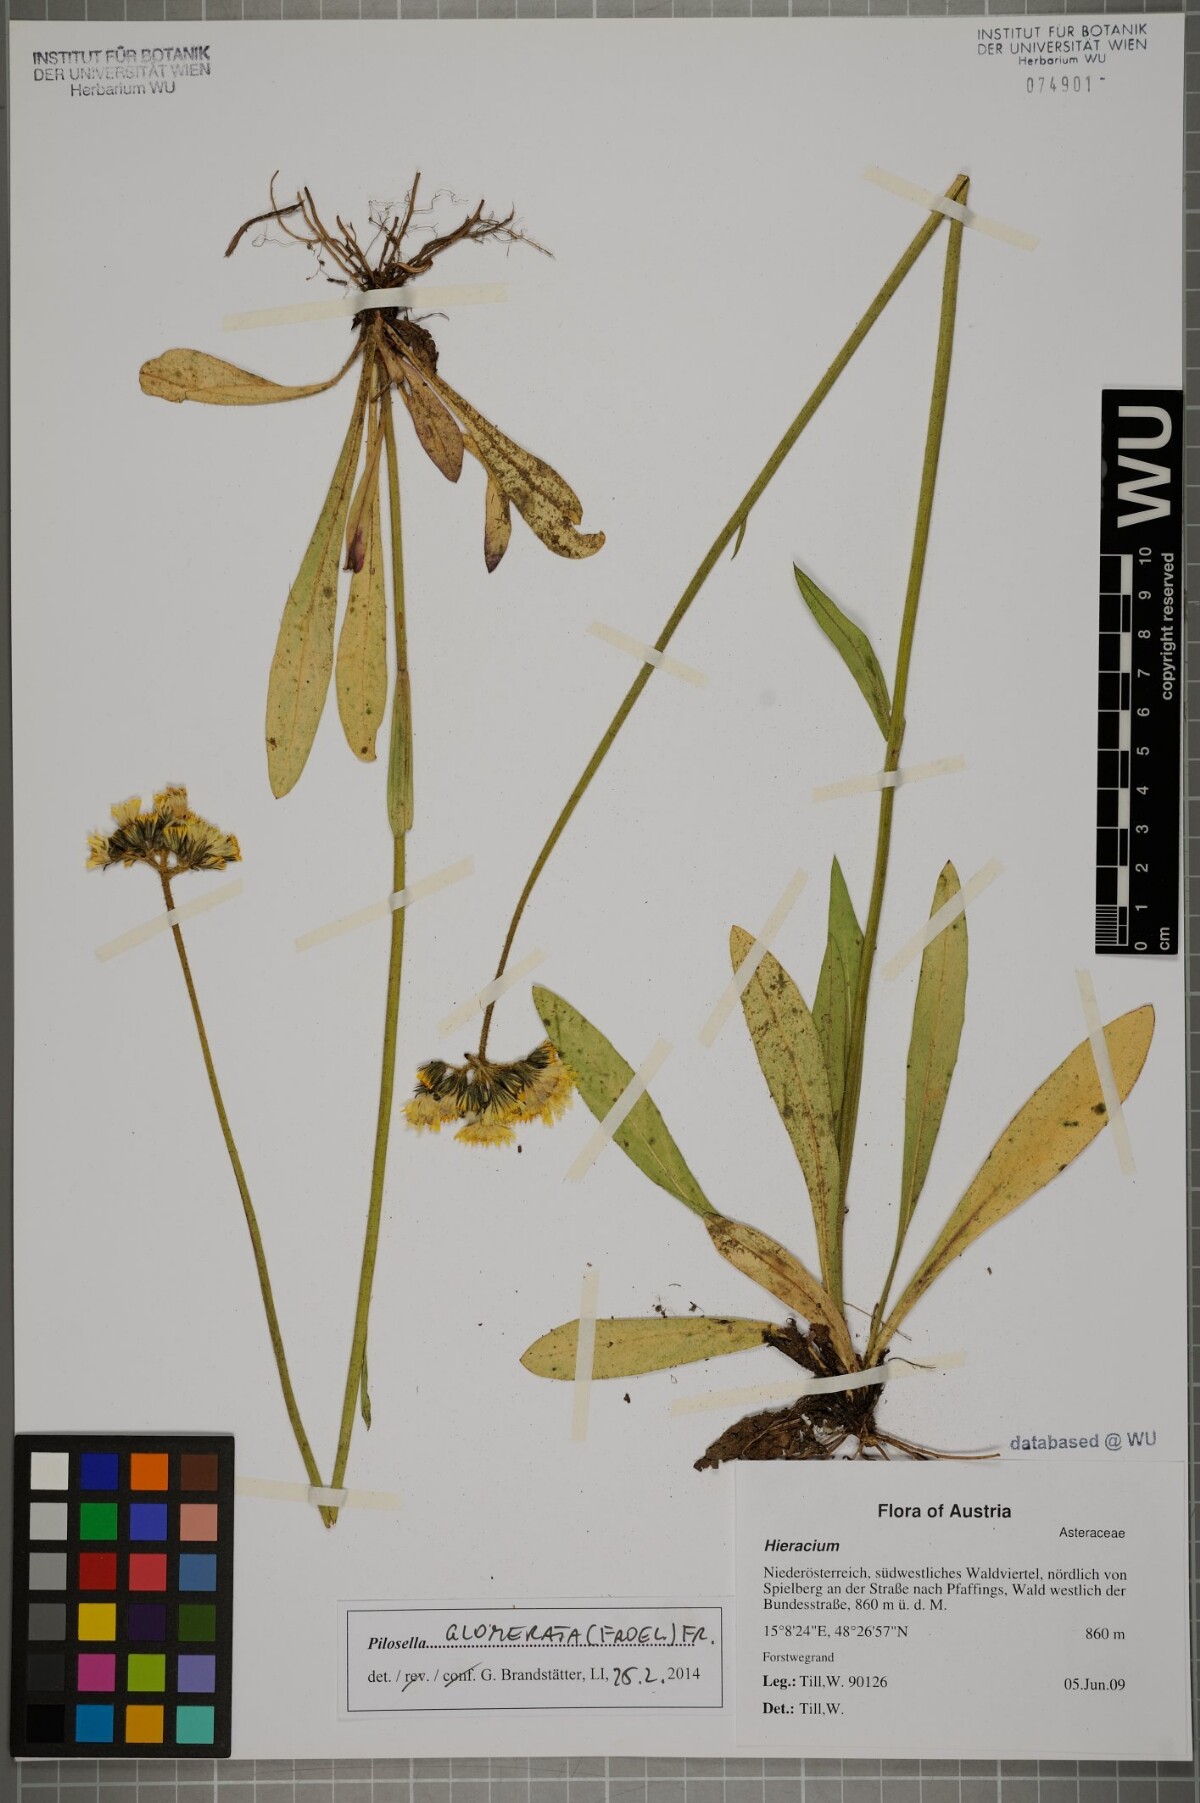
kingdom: Plantae
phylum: Tracheophyta
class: Magnoliopsida
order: Asterales
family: Asteraceae
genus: Pilosella
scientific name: Pilosella glomerata
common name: Queen devil hawkweed
